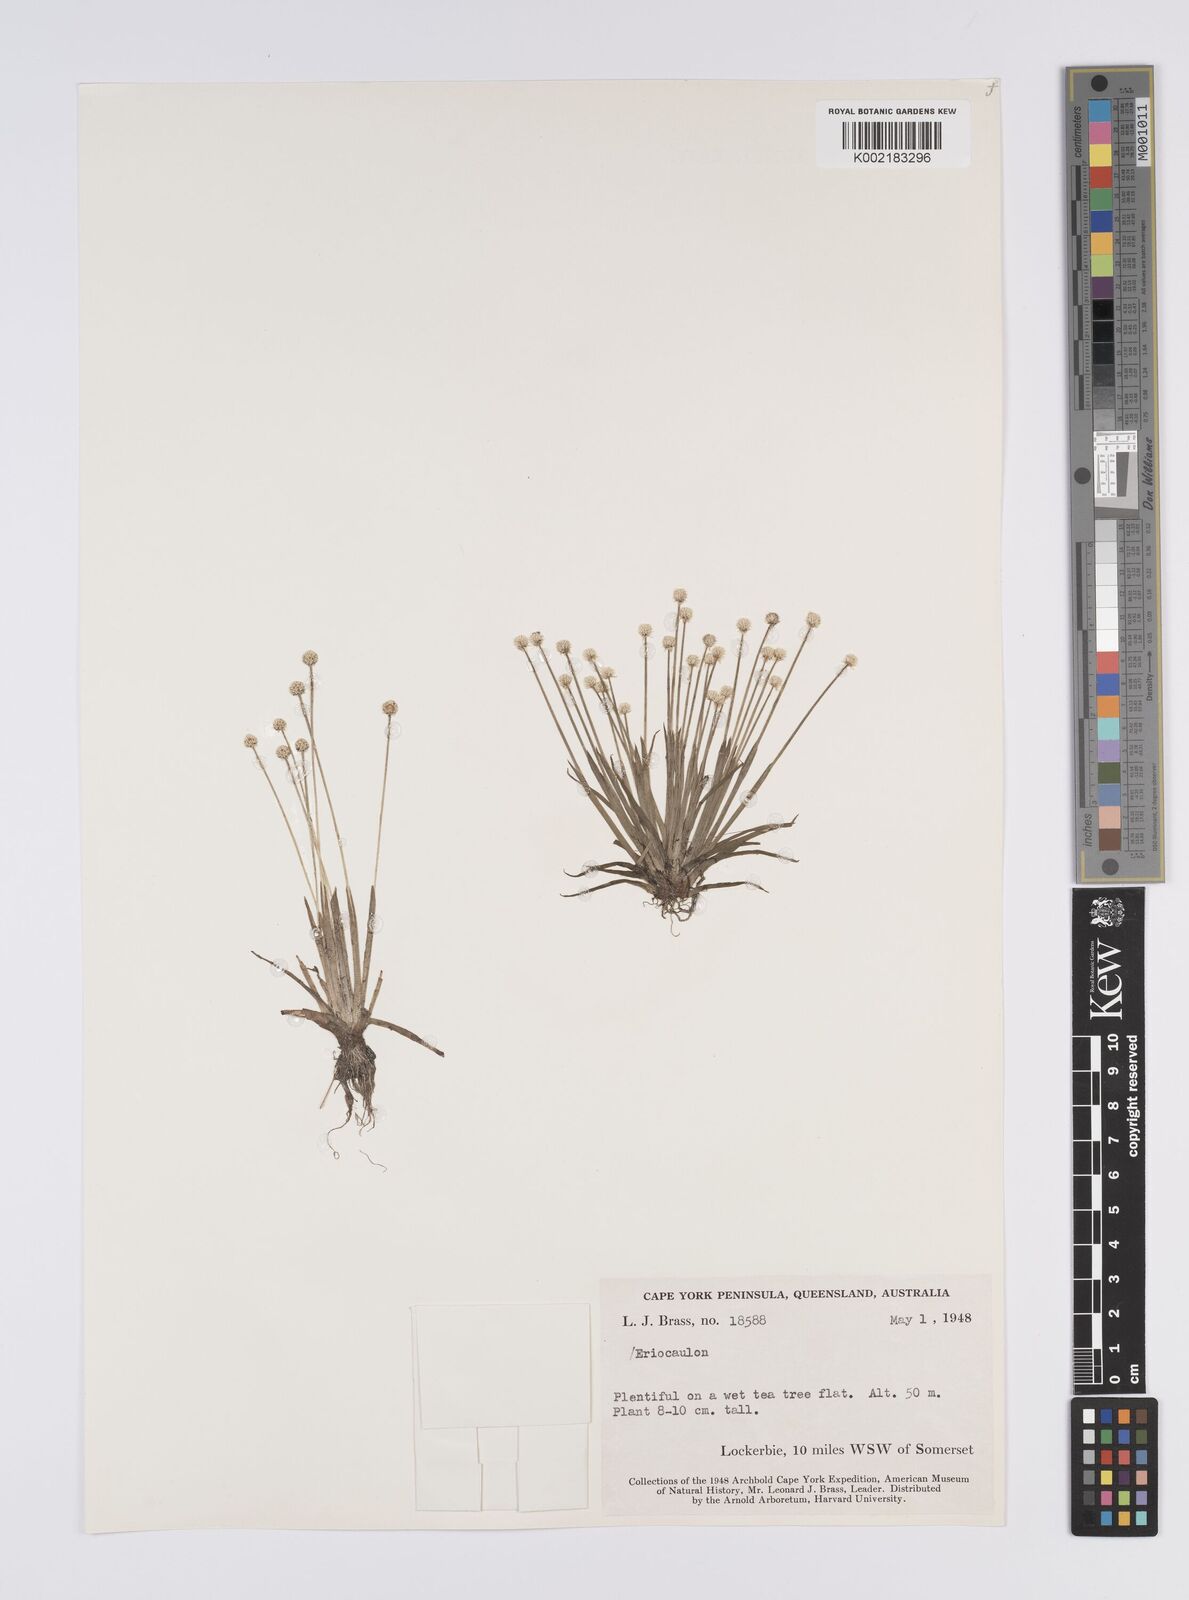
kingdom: Plantae
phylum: Tracheophyta
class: Liliopsida
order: Poales
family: Eriocaulaceae
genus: Eriocaulon
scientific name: Eriocaulon
